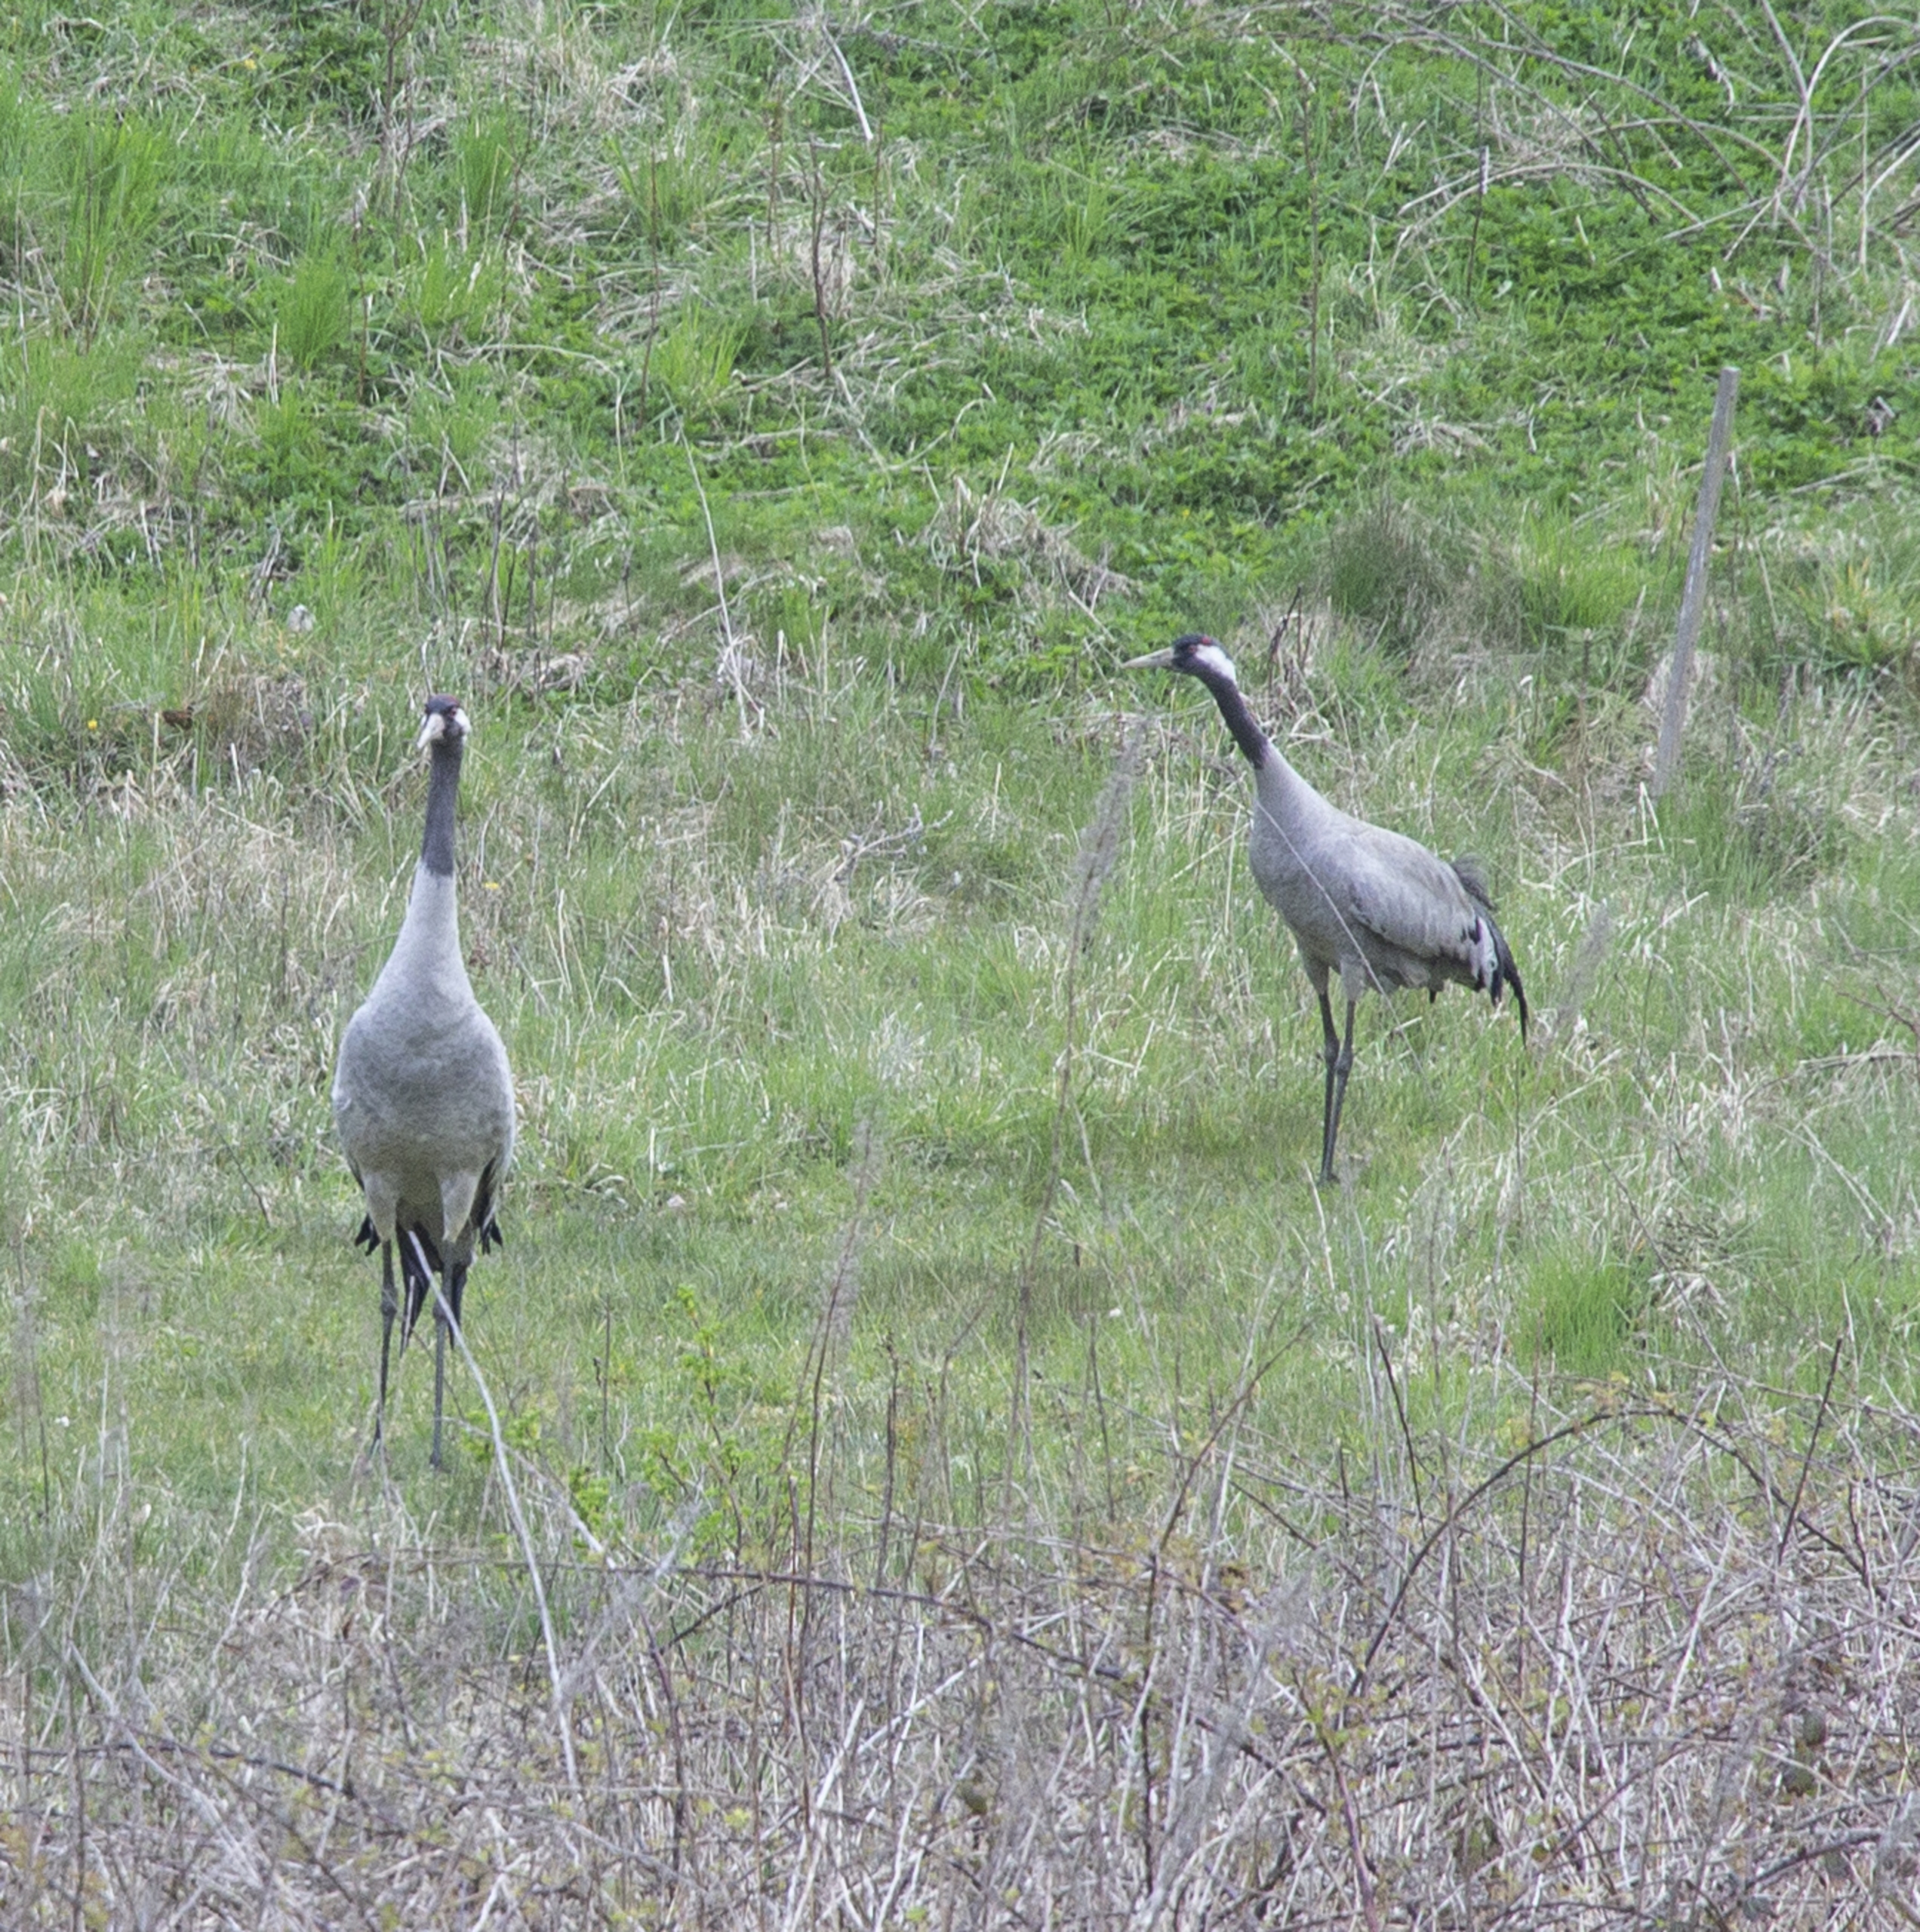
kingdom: Animalia
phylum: Chordata
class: Aves
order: Gruiformes
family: Gruidae
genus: Grus
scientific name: Grus grus
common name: Trane
